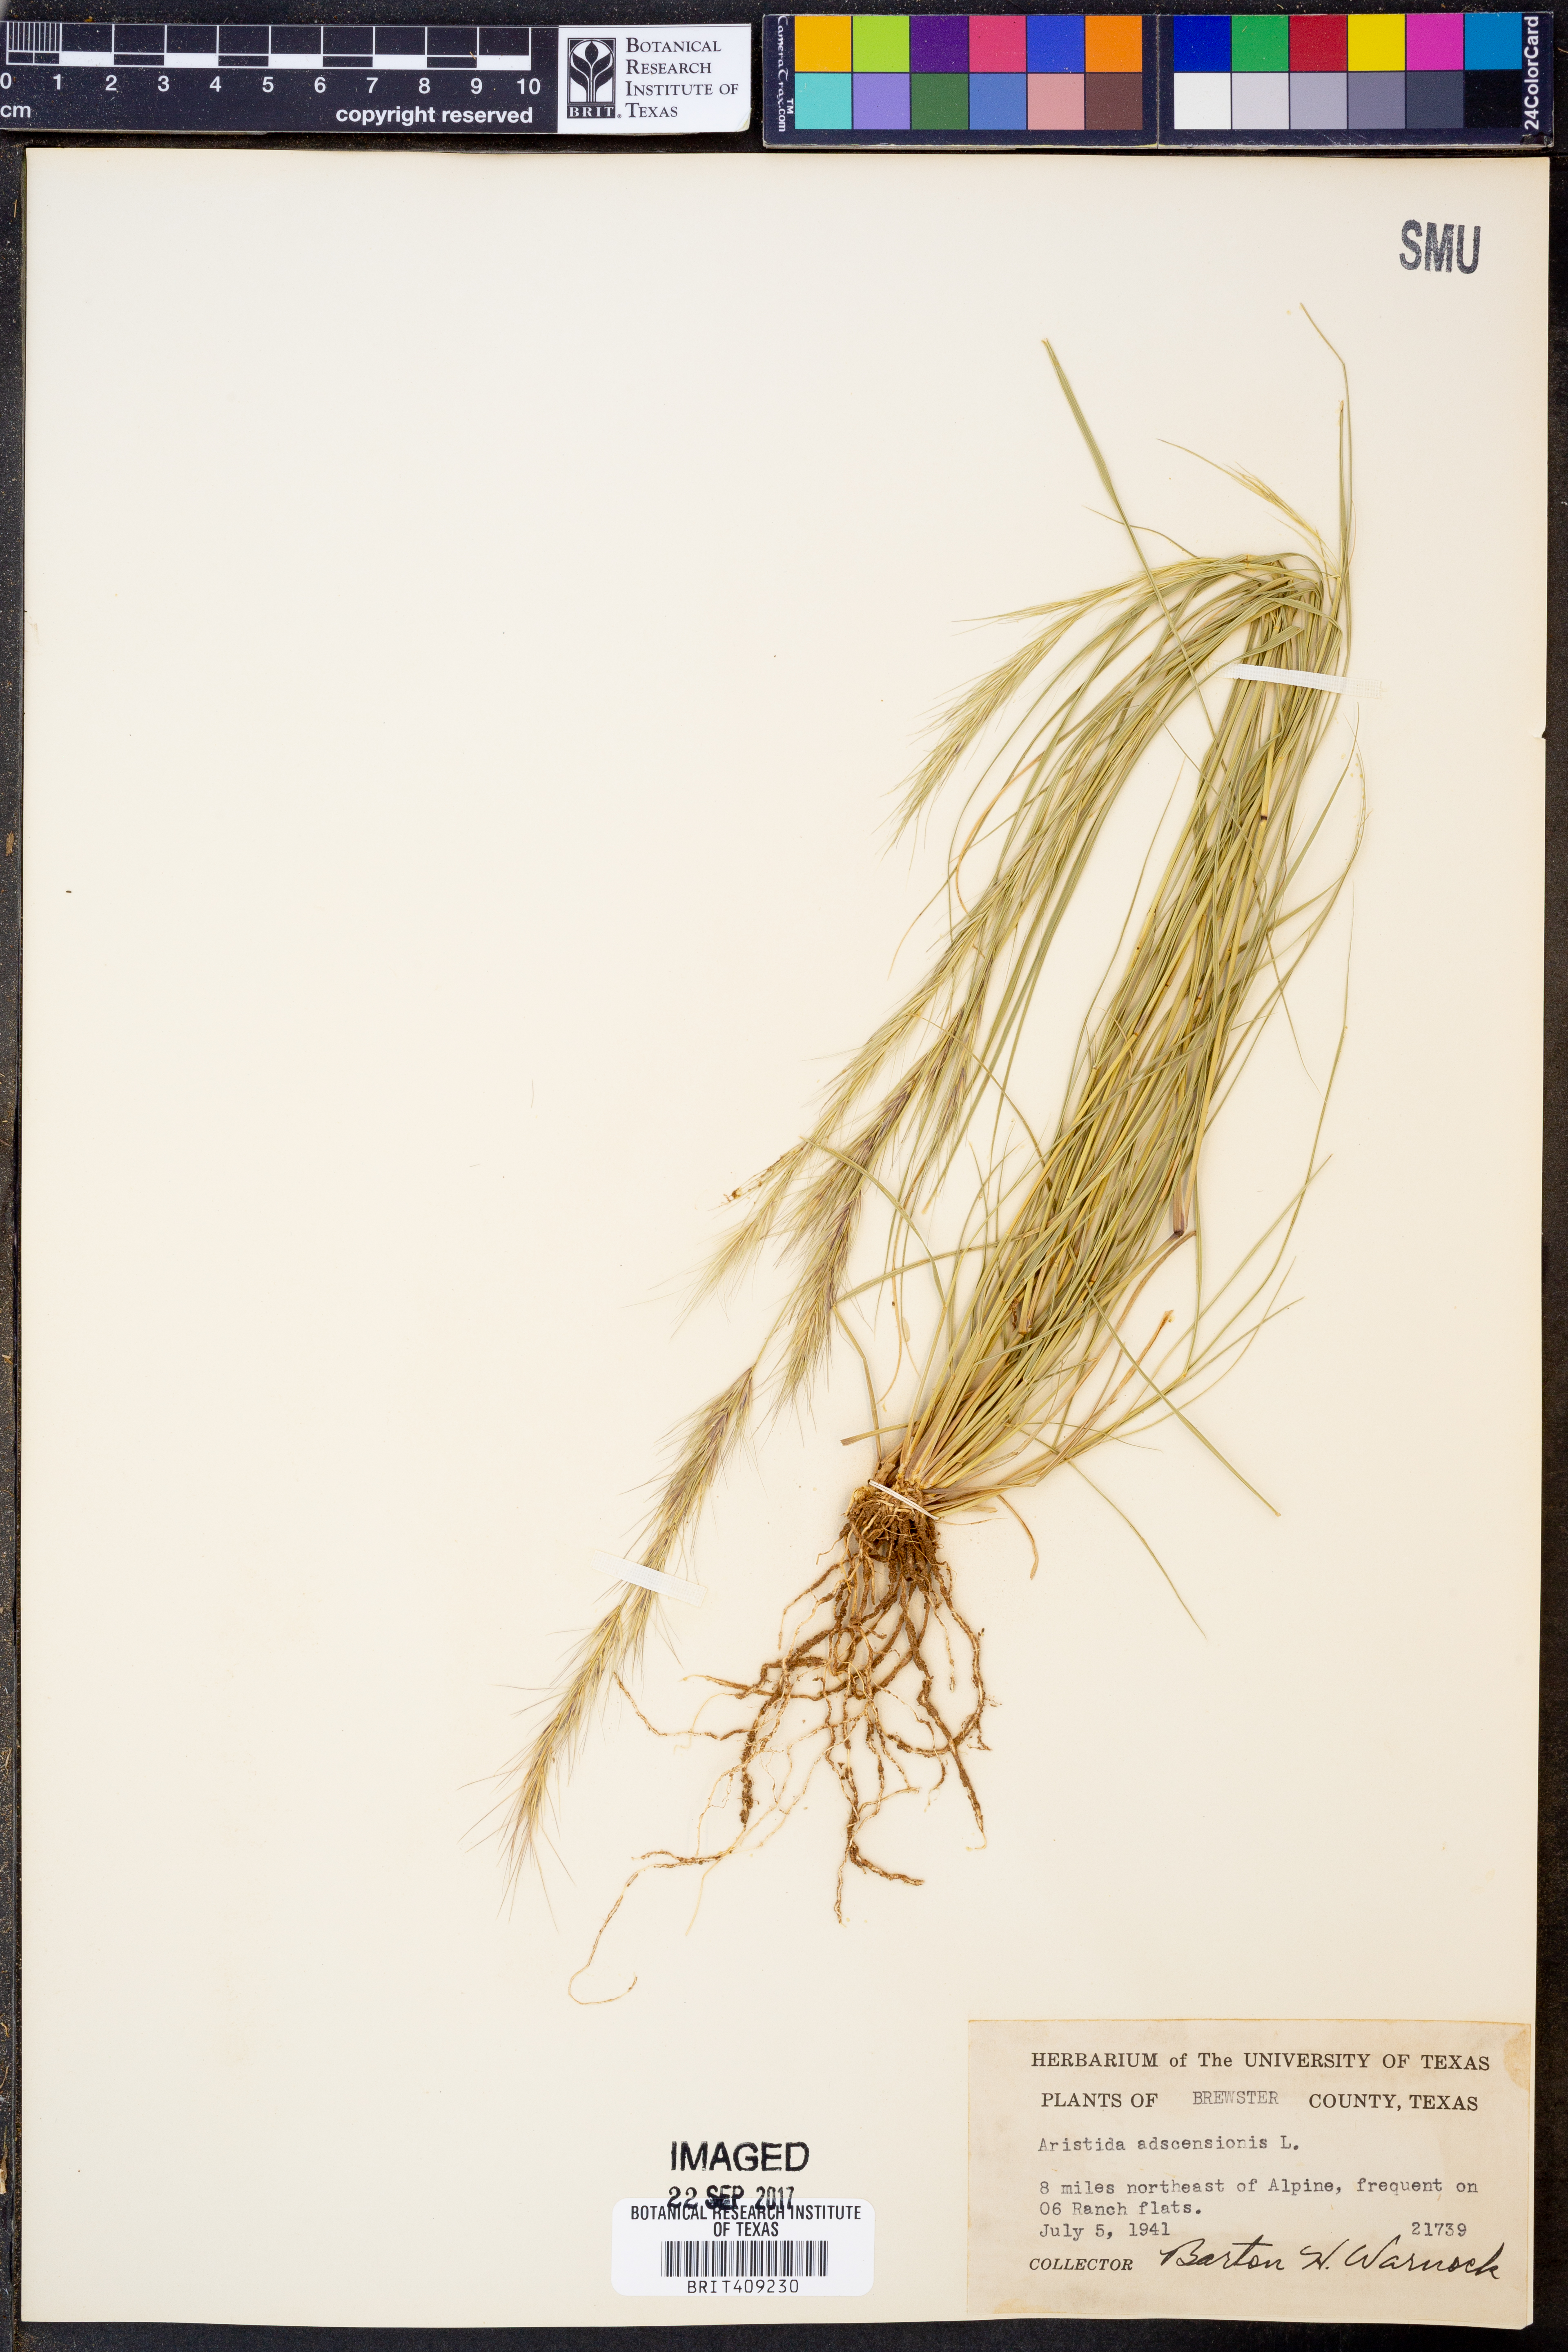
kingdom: Plantae
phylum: Tracheophyta
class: Liliopsida
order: Poales
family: Poaceae
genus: Aristida
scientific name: Aristida adscensionis
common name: Sixweeks threeawn
